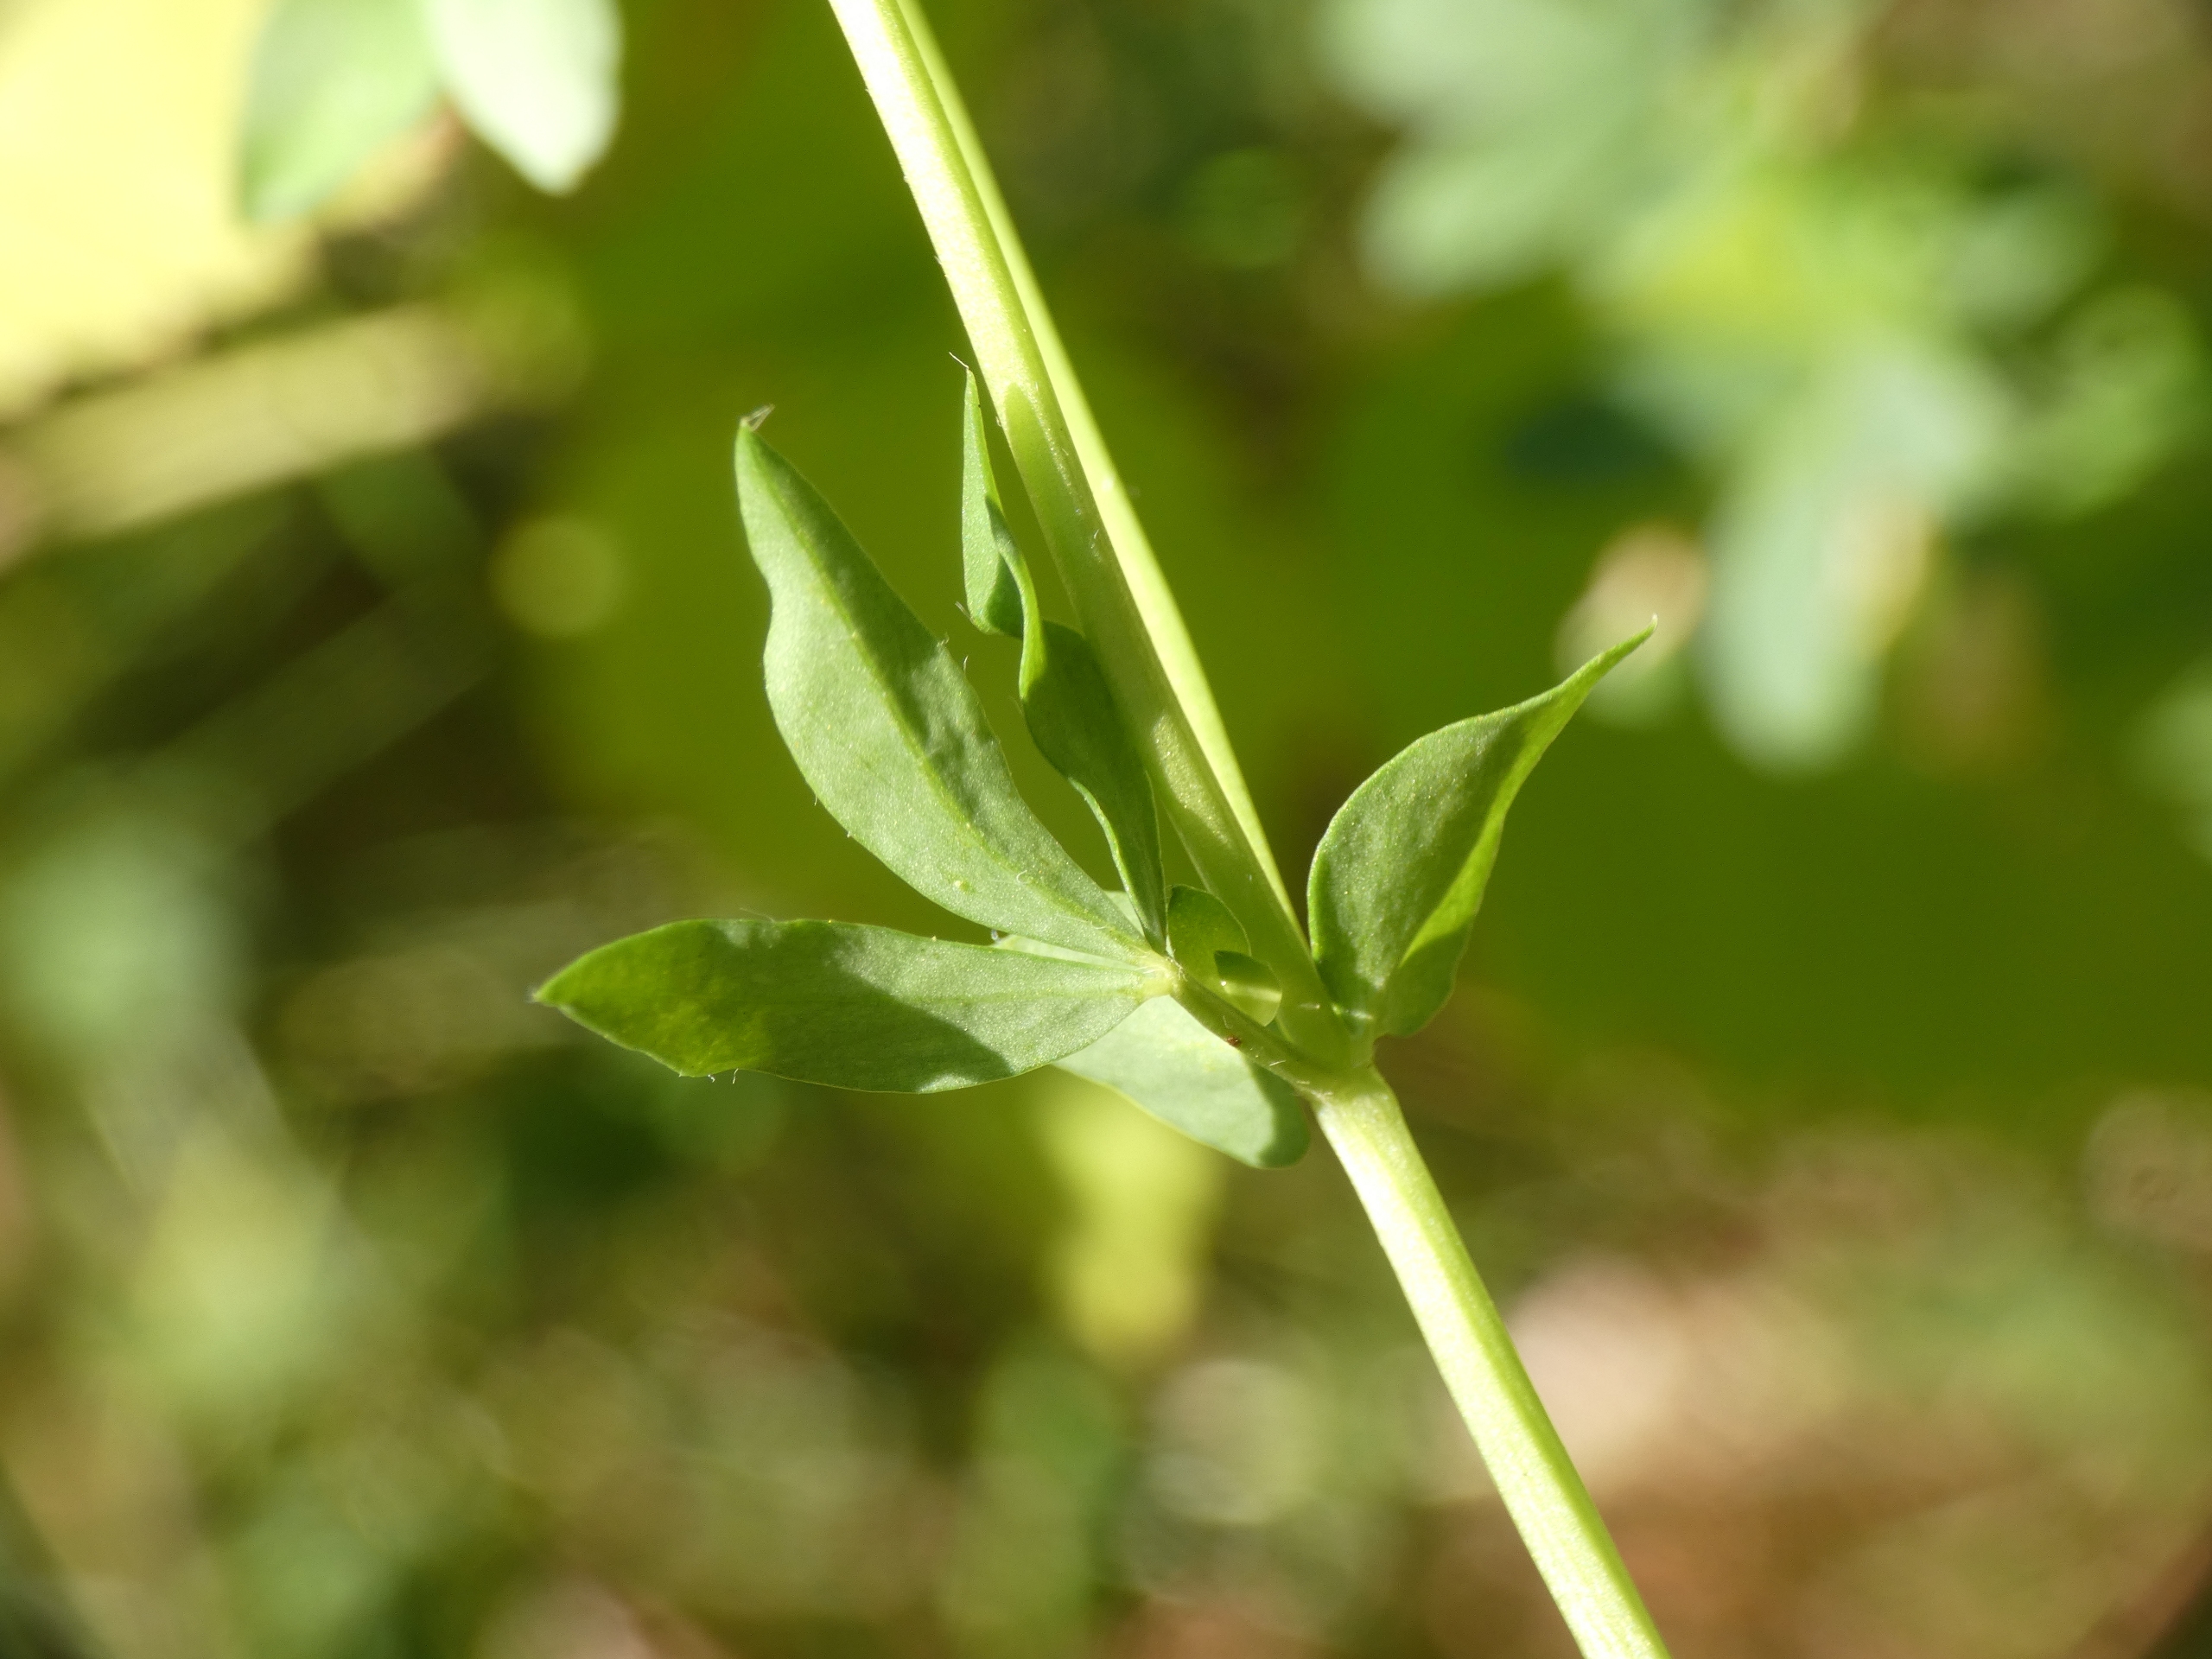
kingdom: Plantae
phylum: Tracheophyta
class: Magnoliopsida
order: Fabales
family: Fabaceae
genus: Lotus
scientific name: Lotus corniculatus
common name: Almindelig kællingetand
